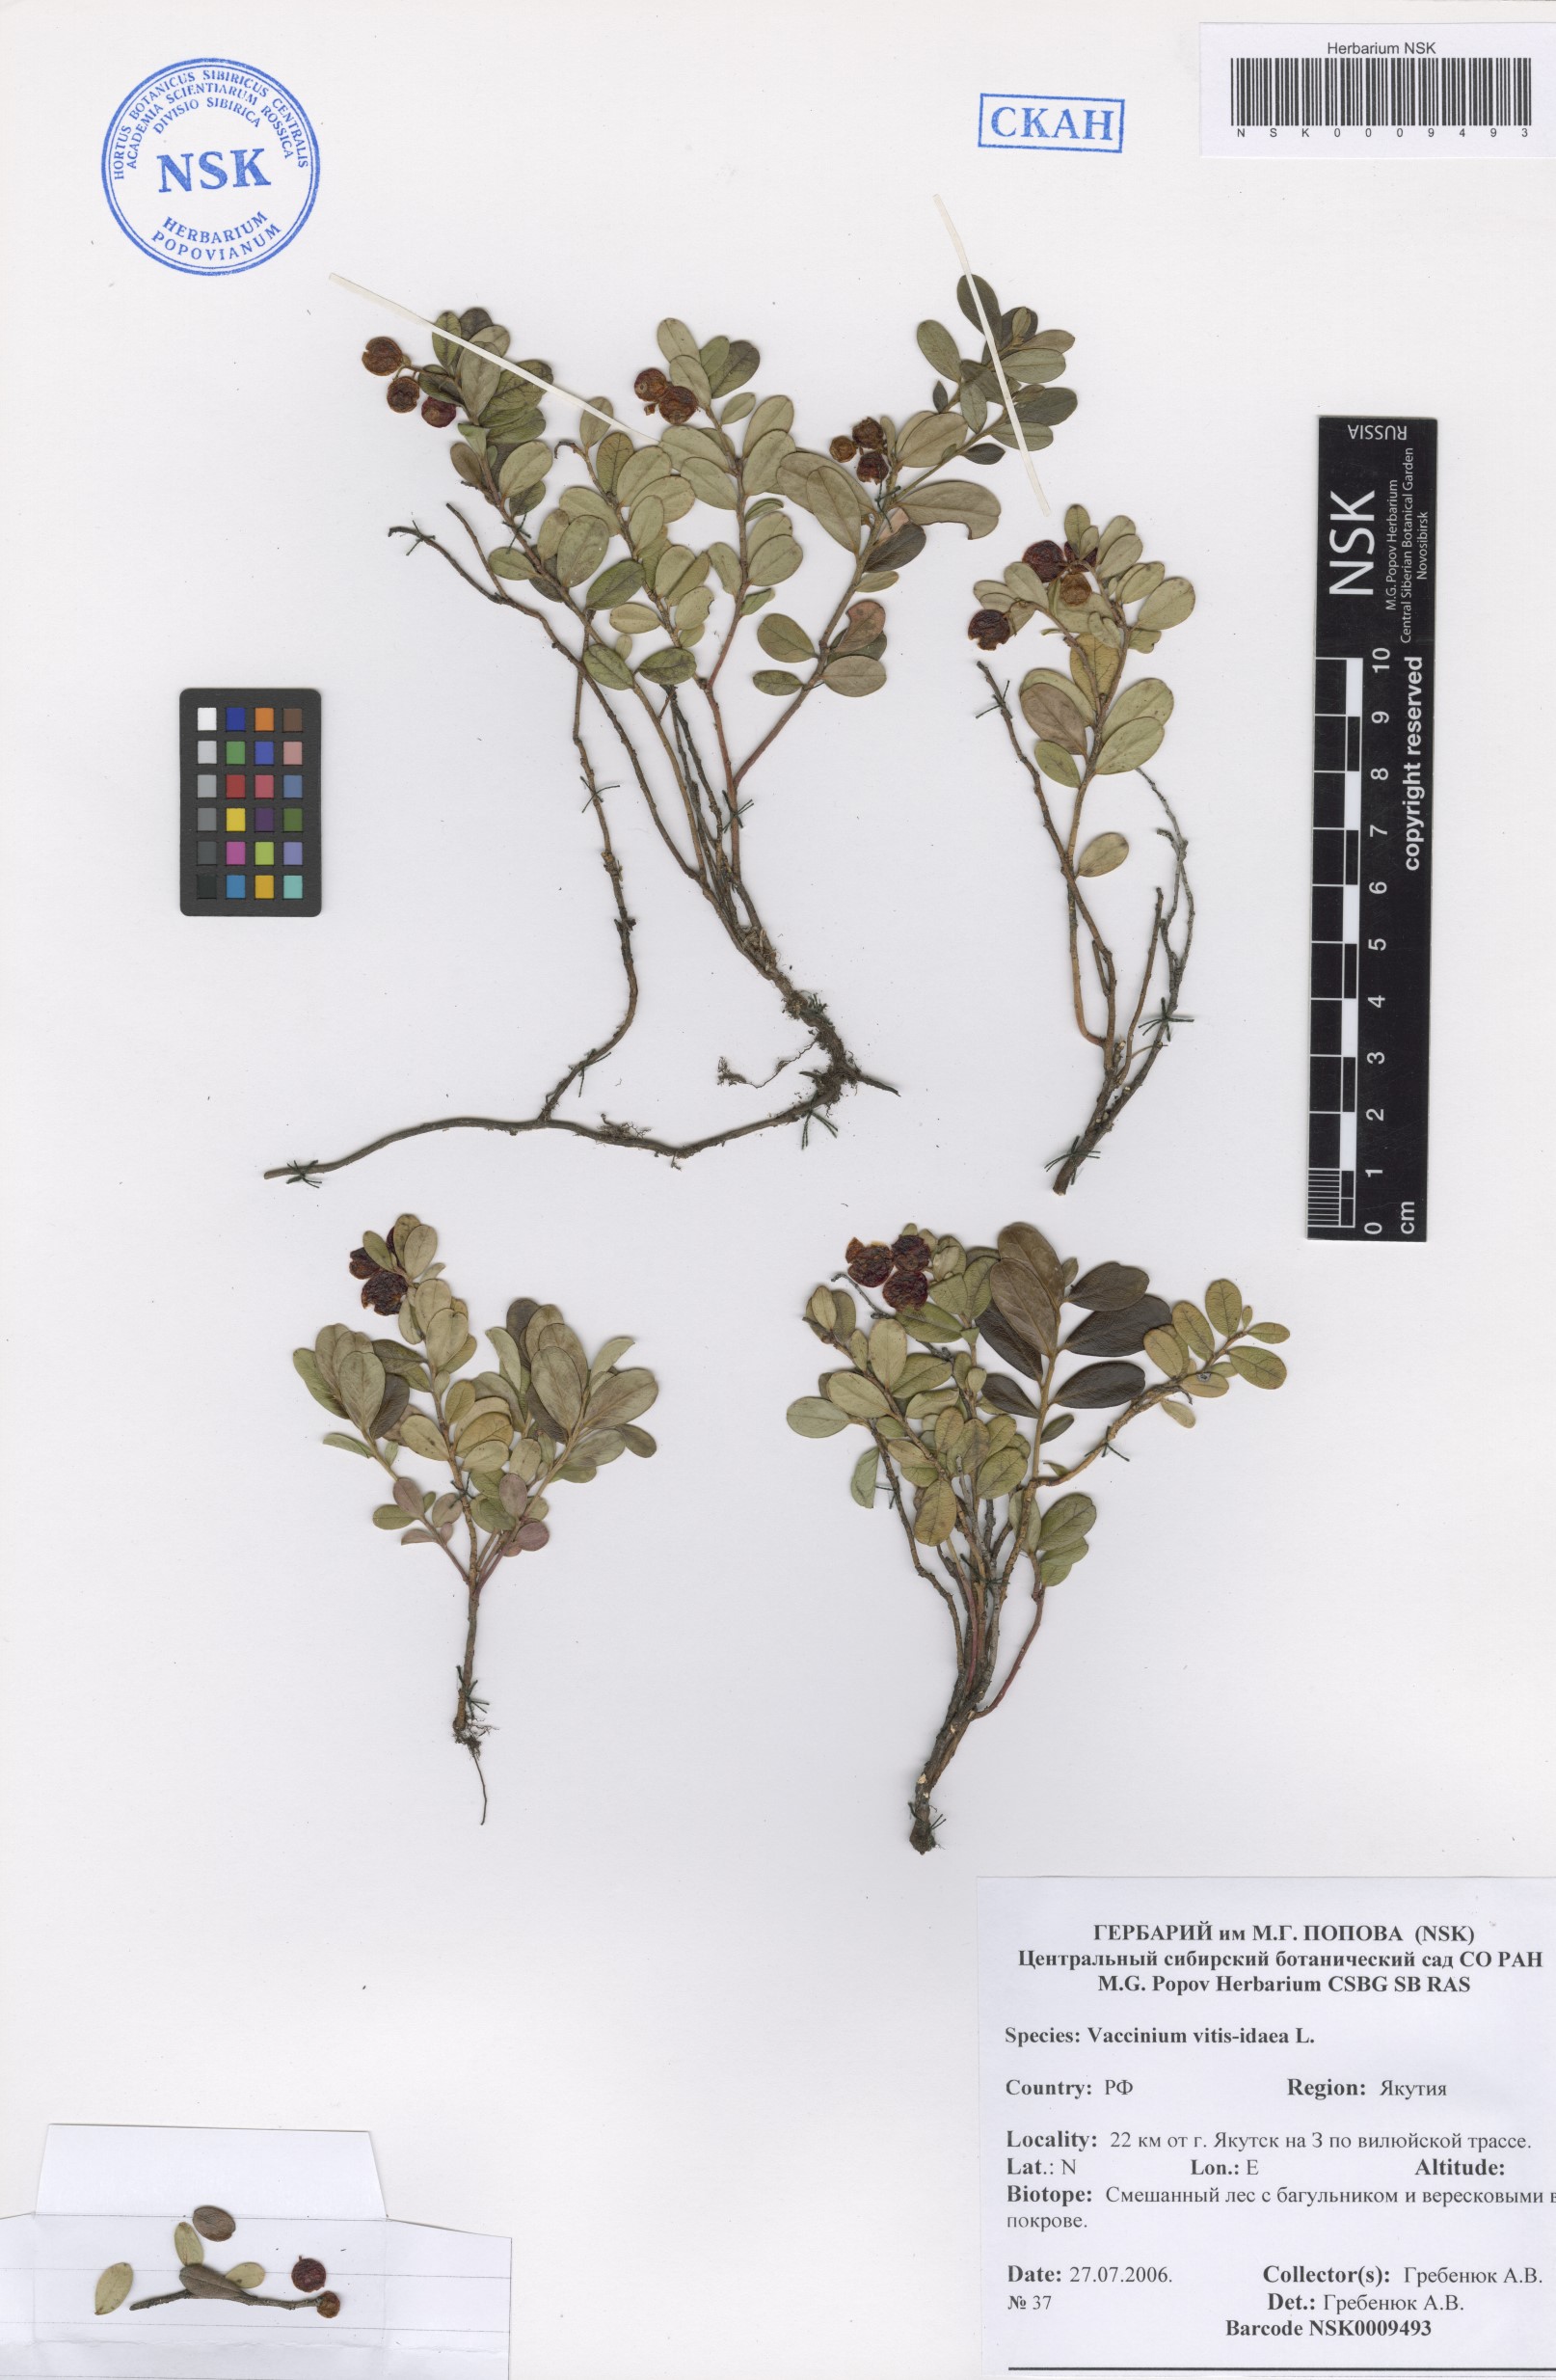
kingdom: Plantae
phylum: Tracheophyta
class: Magnoliopsida
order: Ericales
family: Ericaceae
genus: Vaccinium
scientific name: Vaccinium vitis-idaea
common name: Cowberry
